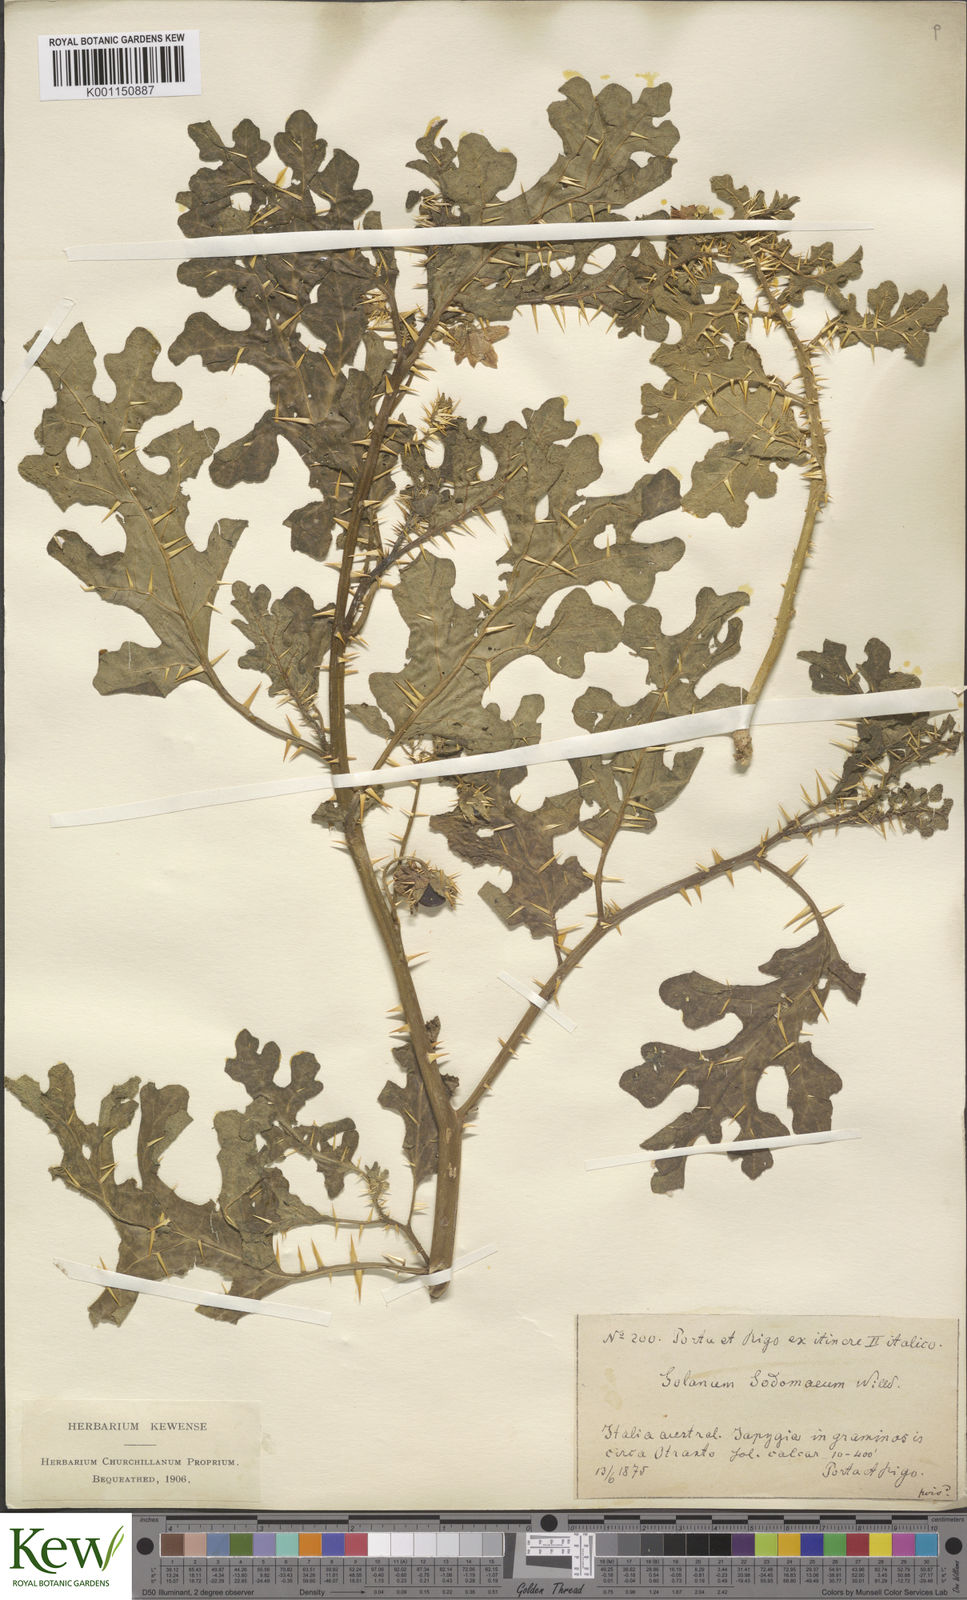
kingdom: Plantae
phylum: Tracheophyta
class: Magnoliopsida
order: Solanales
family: Solanaceae
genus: Solanum
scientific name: Solanum anguivi
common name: Forest bitterberry
